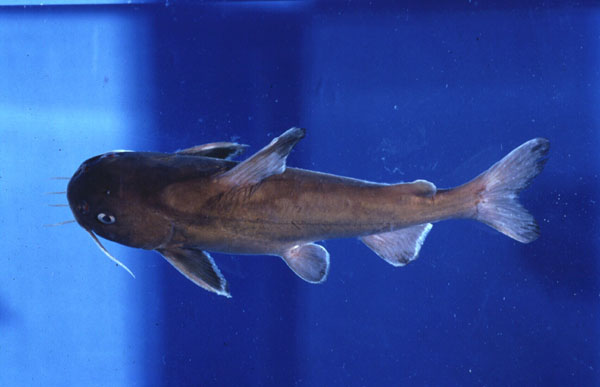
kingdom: Animalia
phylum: Chordata
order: Siluriformes
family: Ariidae
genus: Galeichthys
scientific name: Galeichthys ater
